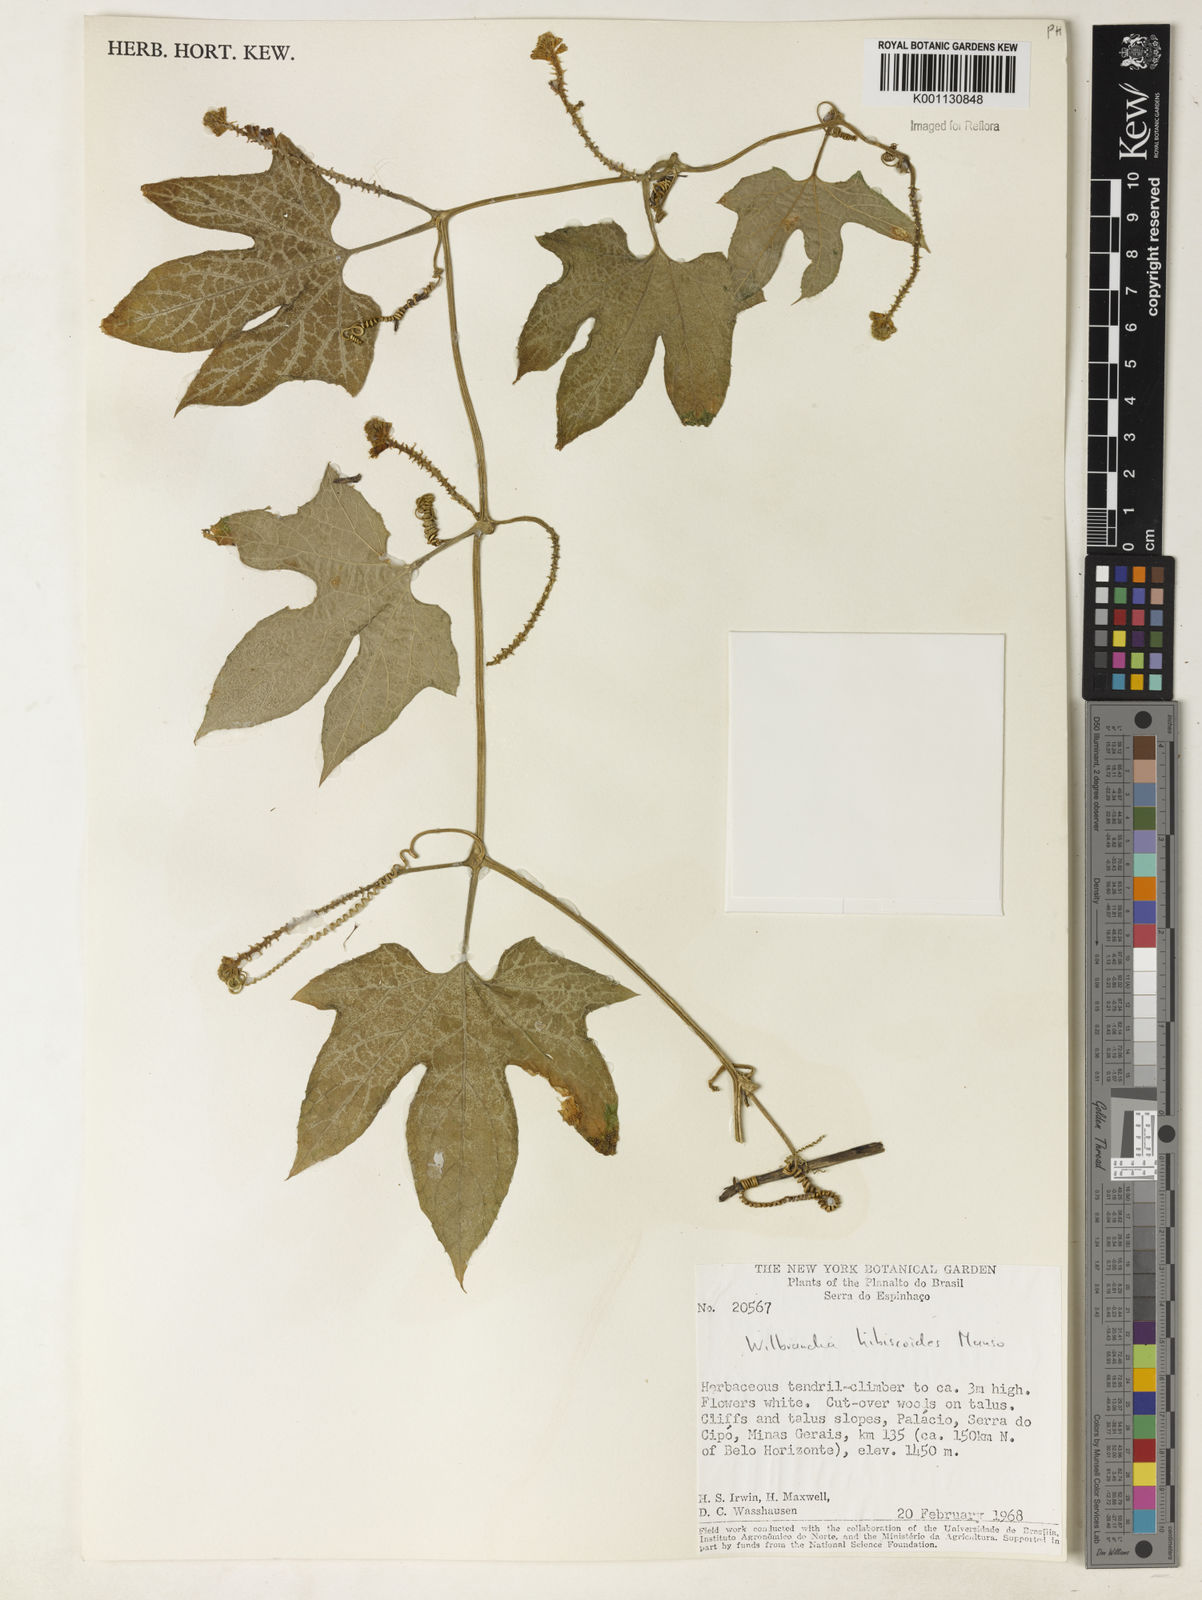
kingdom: Plantae
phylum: Tracheophyta
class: Magnoliopsida
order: Cucurbitales
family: Cucurbitaceae
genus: Wilbrandia
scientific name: Wilbrandia hibiscoides
